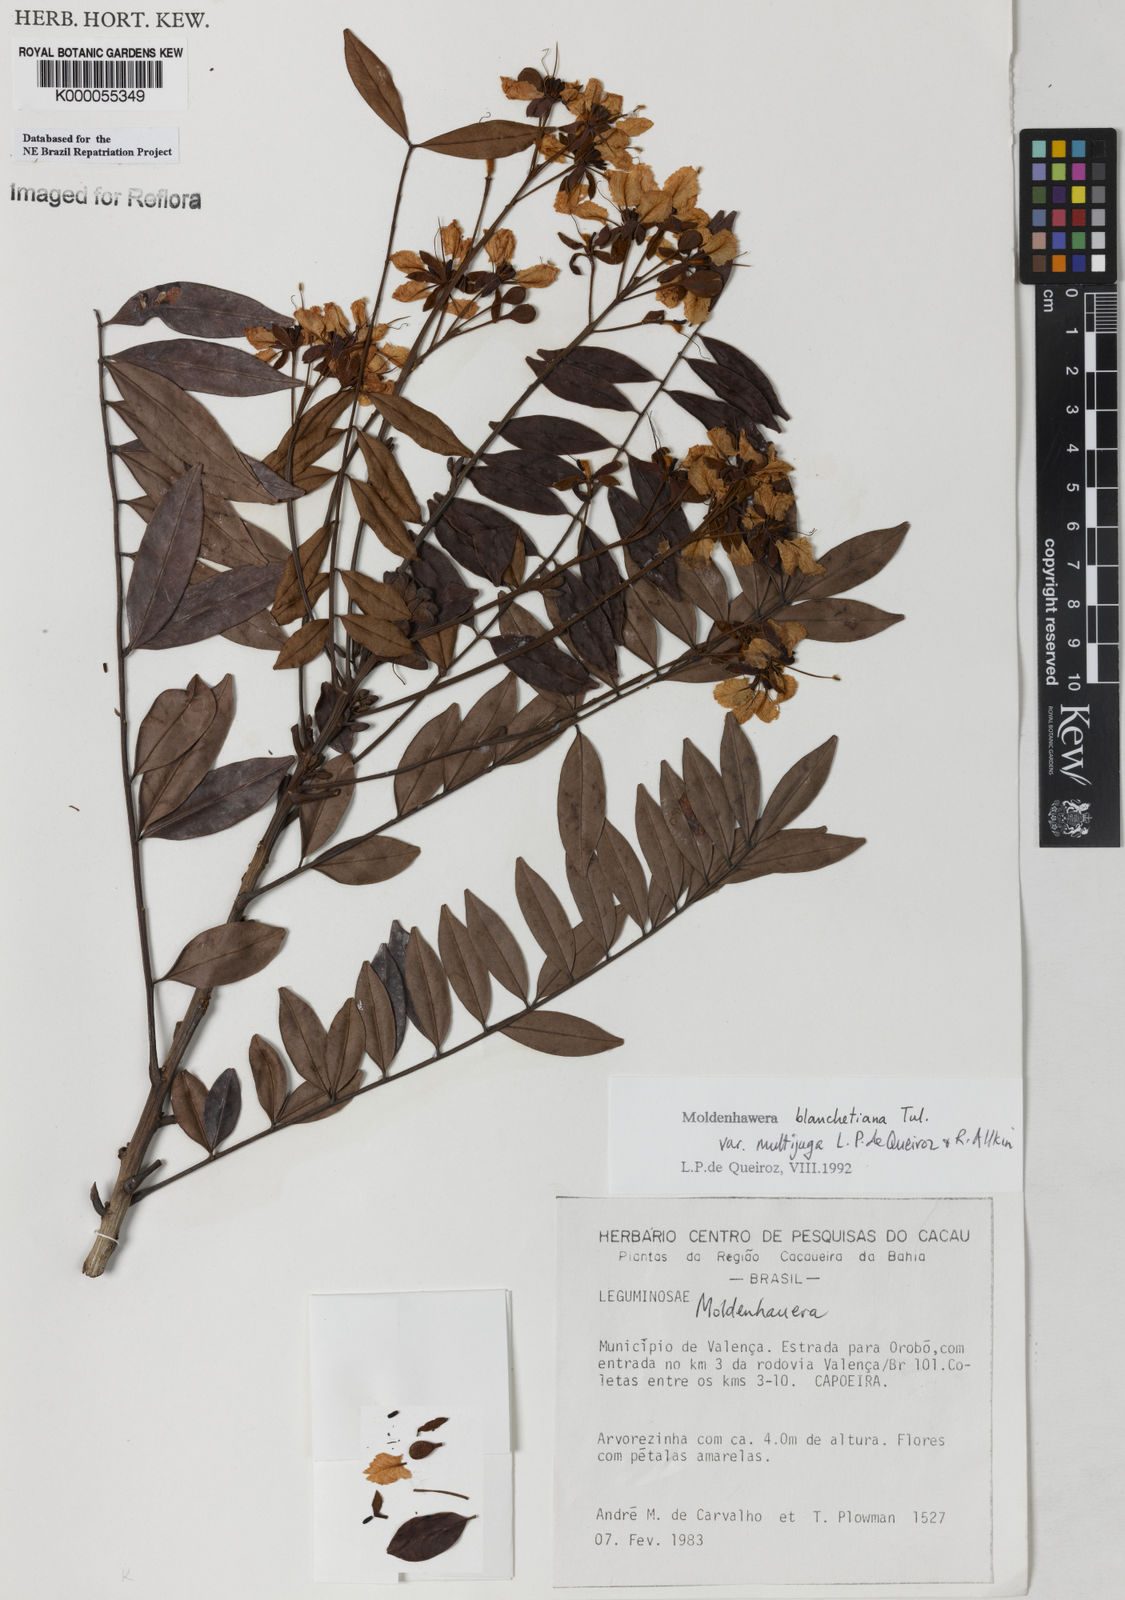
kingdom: Plantae
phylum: Tracheophyta
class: Magnoliopsida
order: Fabales
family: Fabaceae
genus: Moldenhawera
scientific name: Moldenhawera blanchetiana
